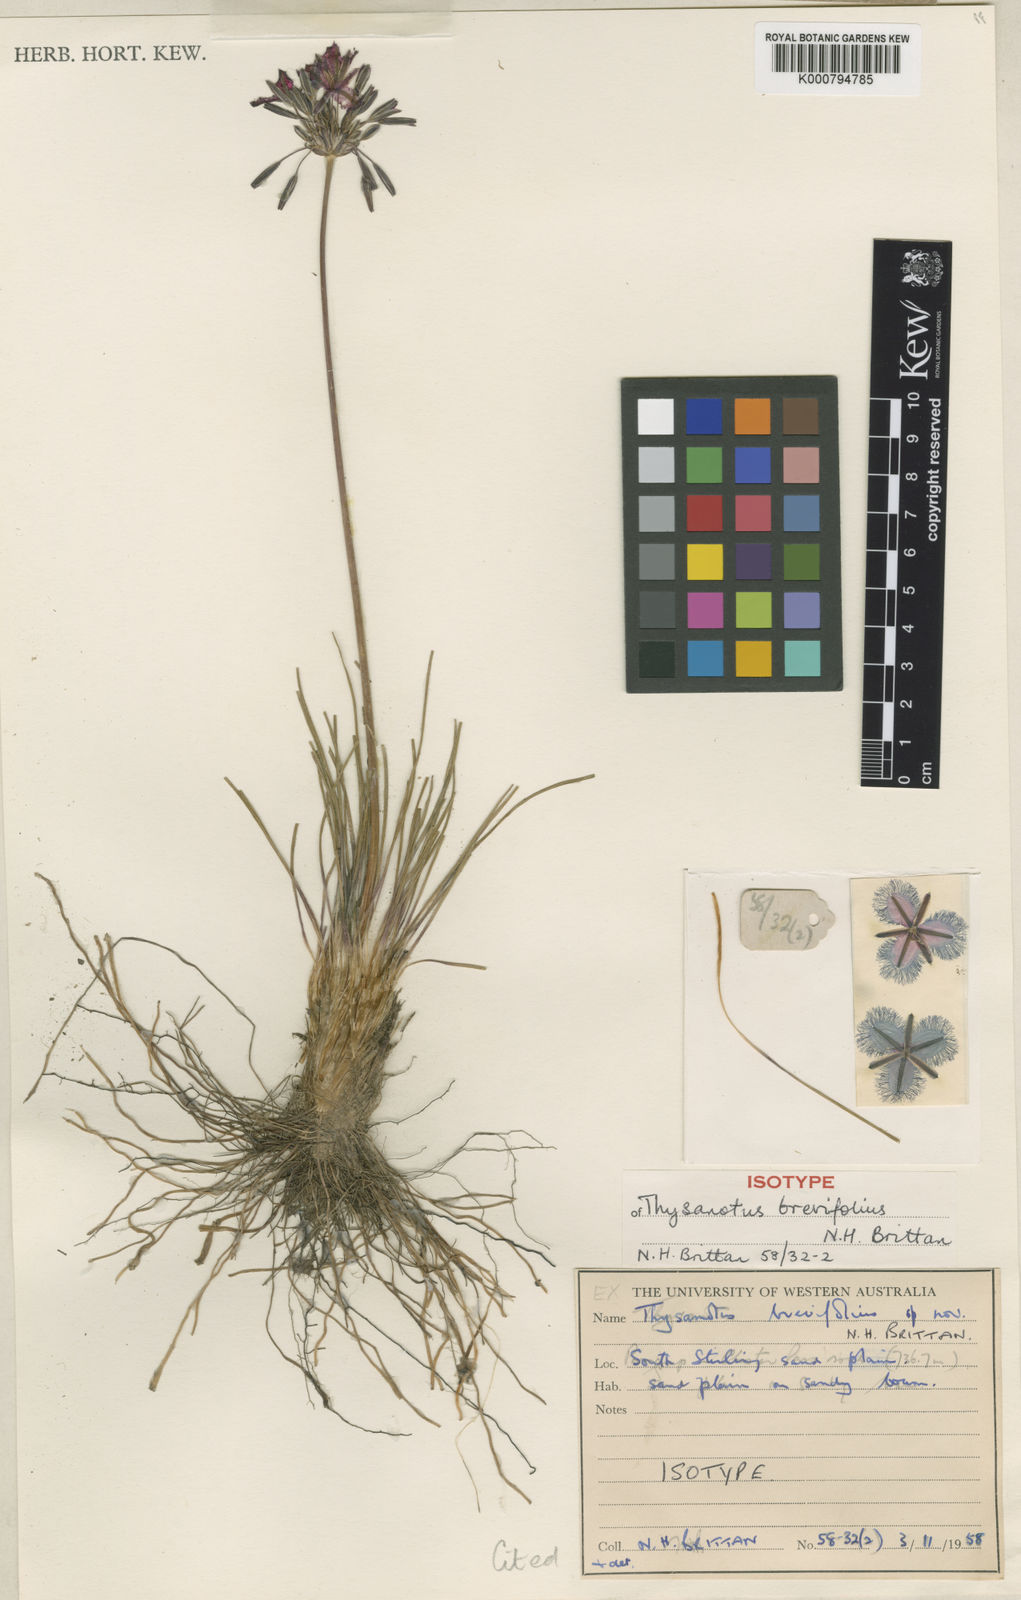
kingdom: Plantae
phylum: Tracheophyta
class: Liliopsida
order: Asparagales
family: Asparagaceae
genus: Thysanotus
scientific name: Thysanotus brevifolius
